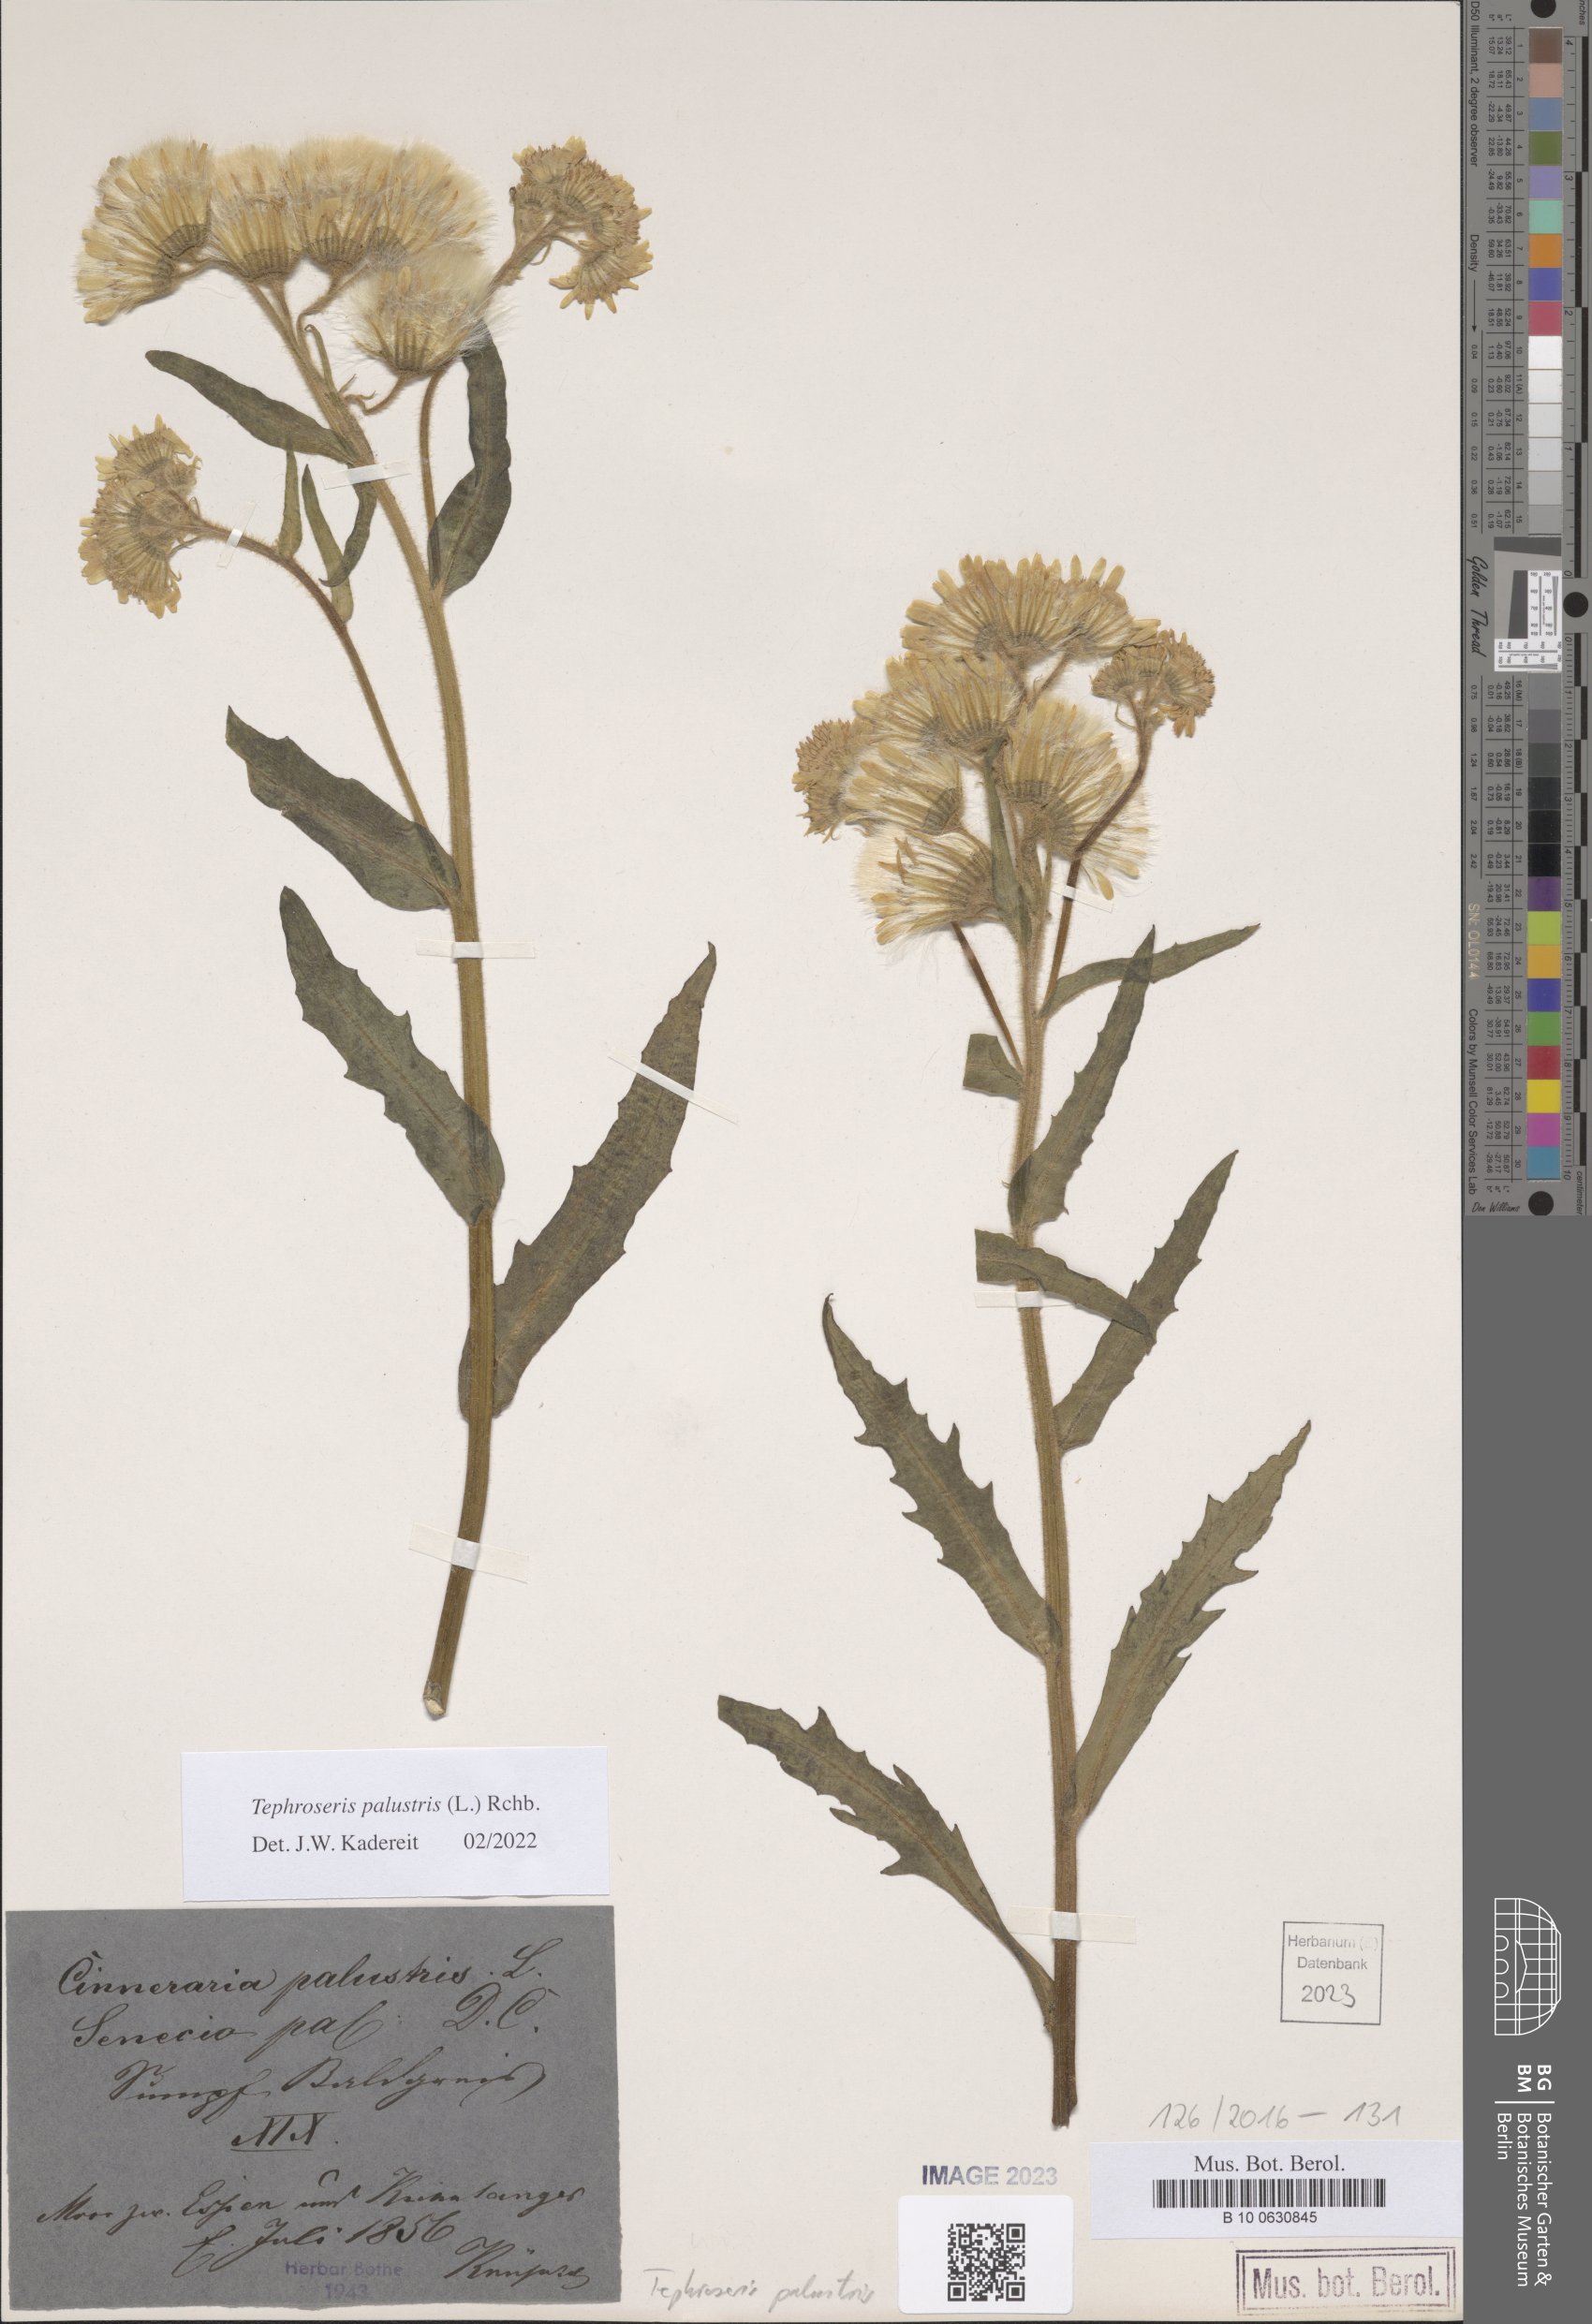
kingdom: Plantae
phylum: Tracheophyta
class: Magnoliopsida
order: Asterales
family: Asteraceae
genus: Tephroseris
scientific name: Tephroseris palustris
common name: Marsh fleawort
